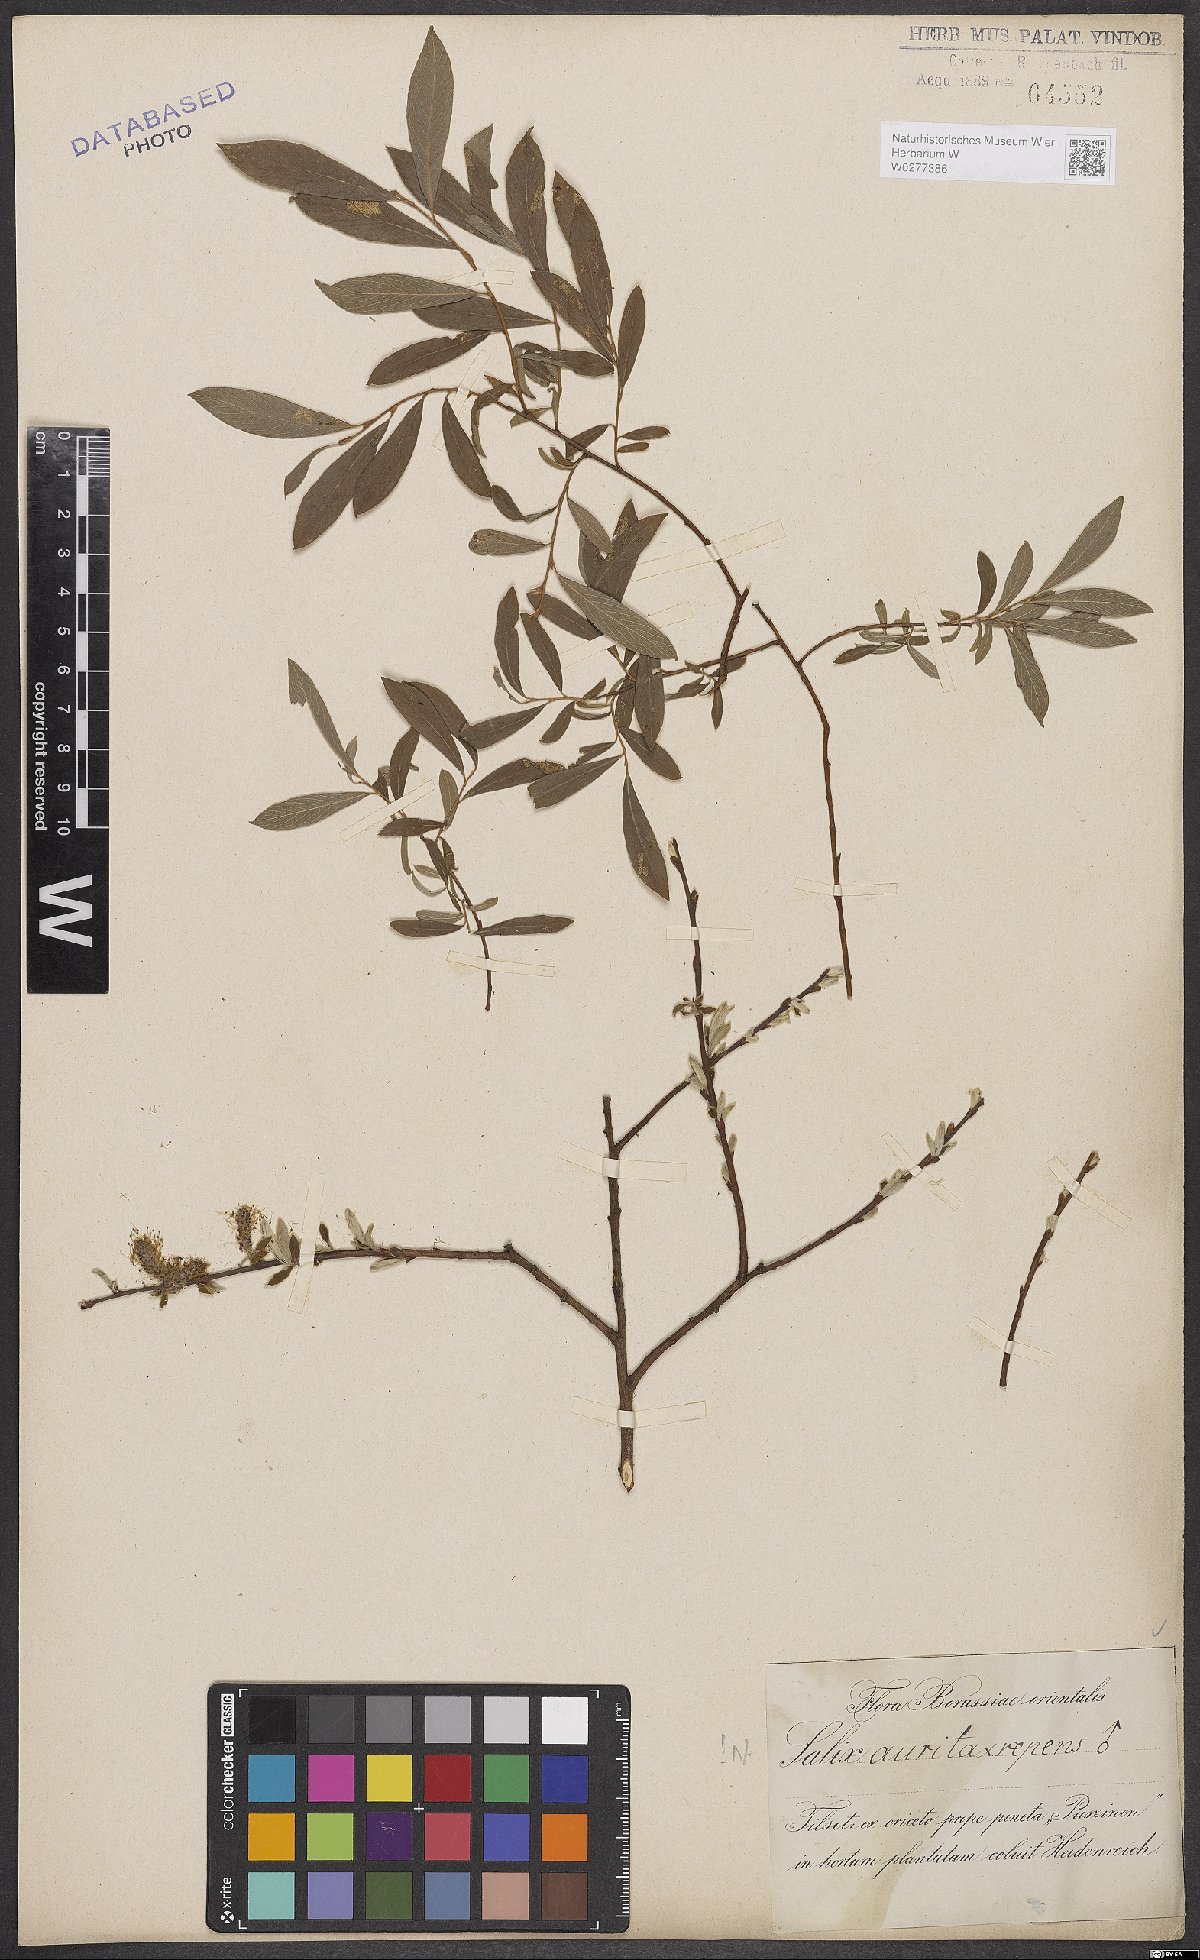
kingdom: Plantae
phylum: Tracheophyta
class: Magnoliopsida
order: Malpighiales
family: Salicaceae
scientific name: Salicaceae
